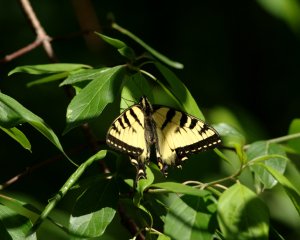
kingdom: Animalia
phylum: Arthropoda
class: Insecta
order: Lepidoptera
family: Papilionidae
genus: Pterourus
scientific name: Pterourus canadensis
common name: Canadian Tiger Swallowtail
